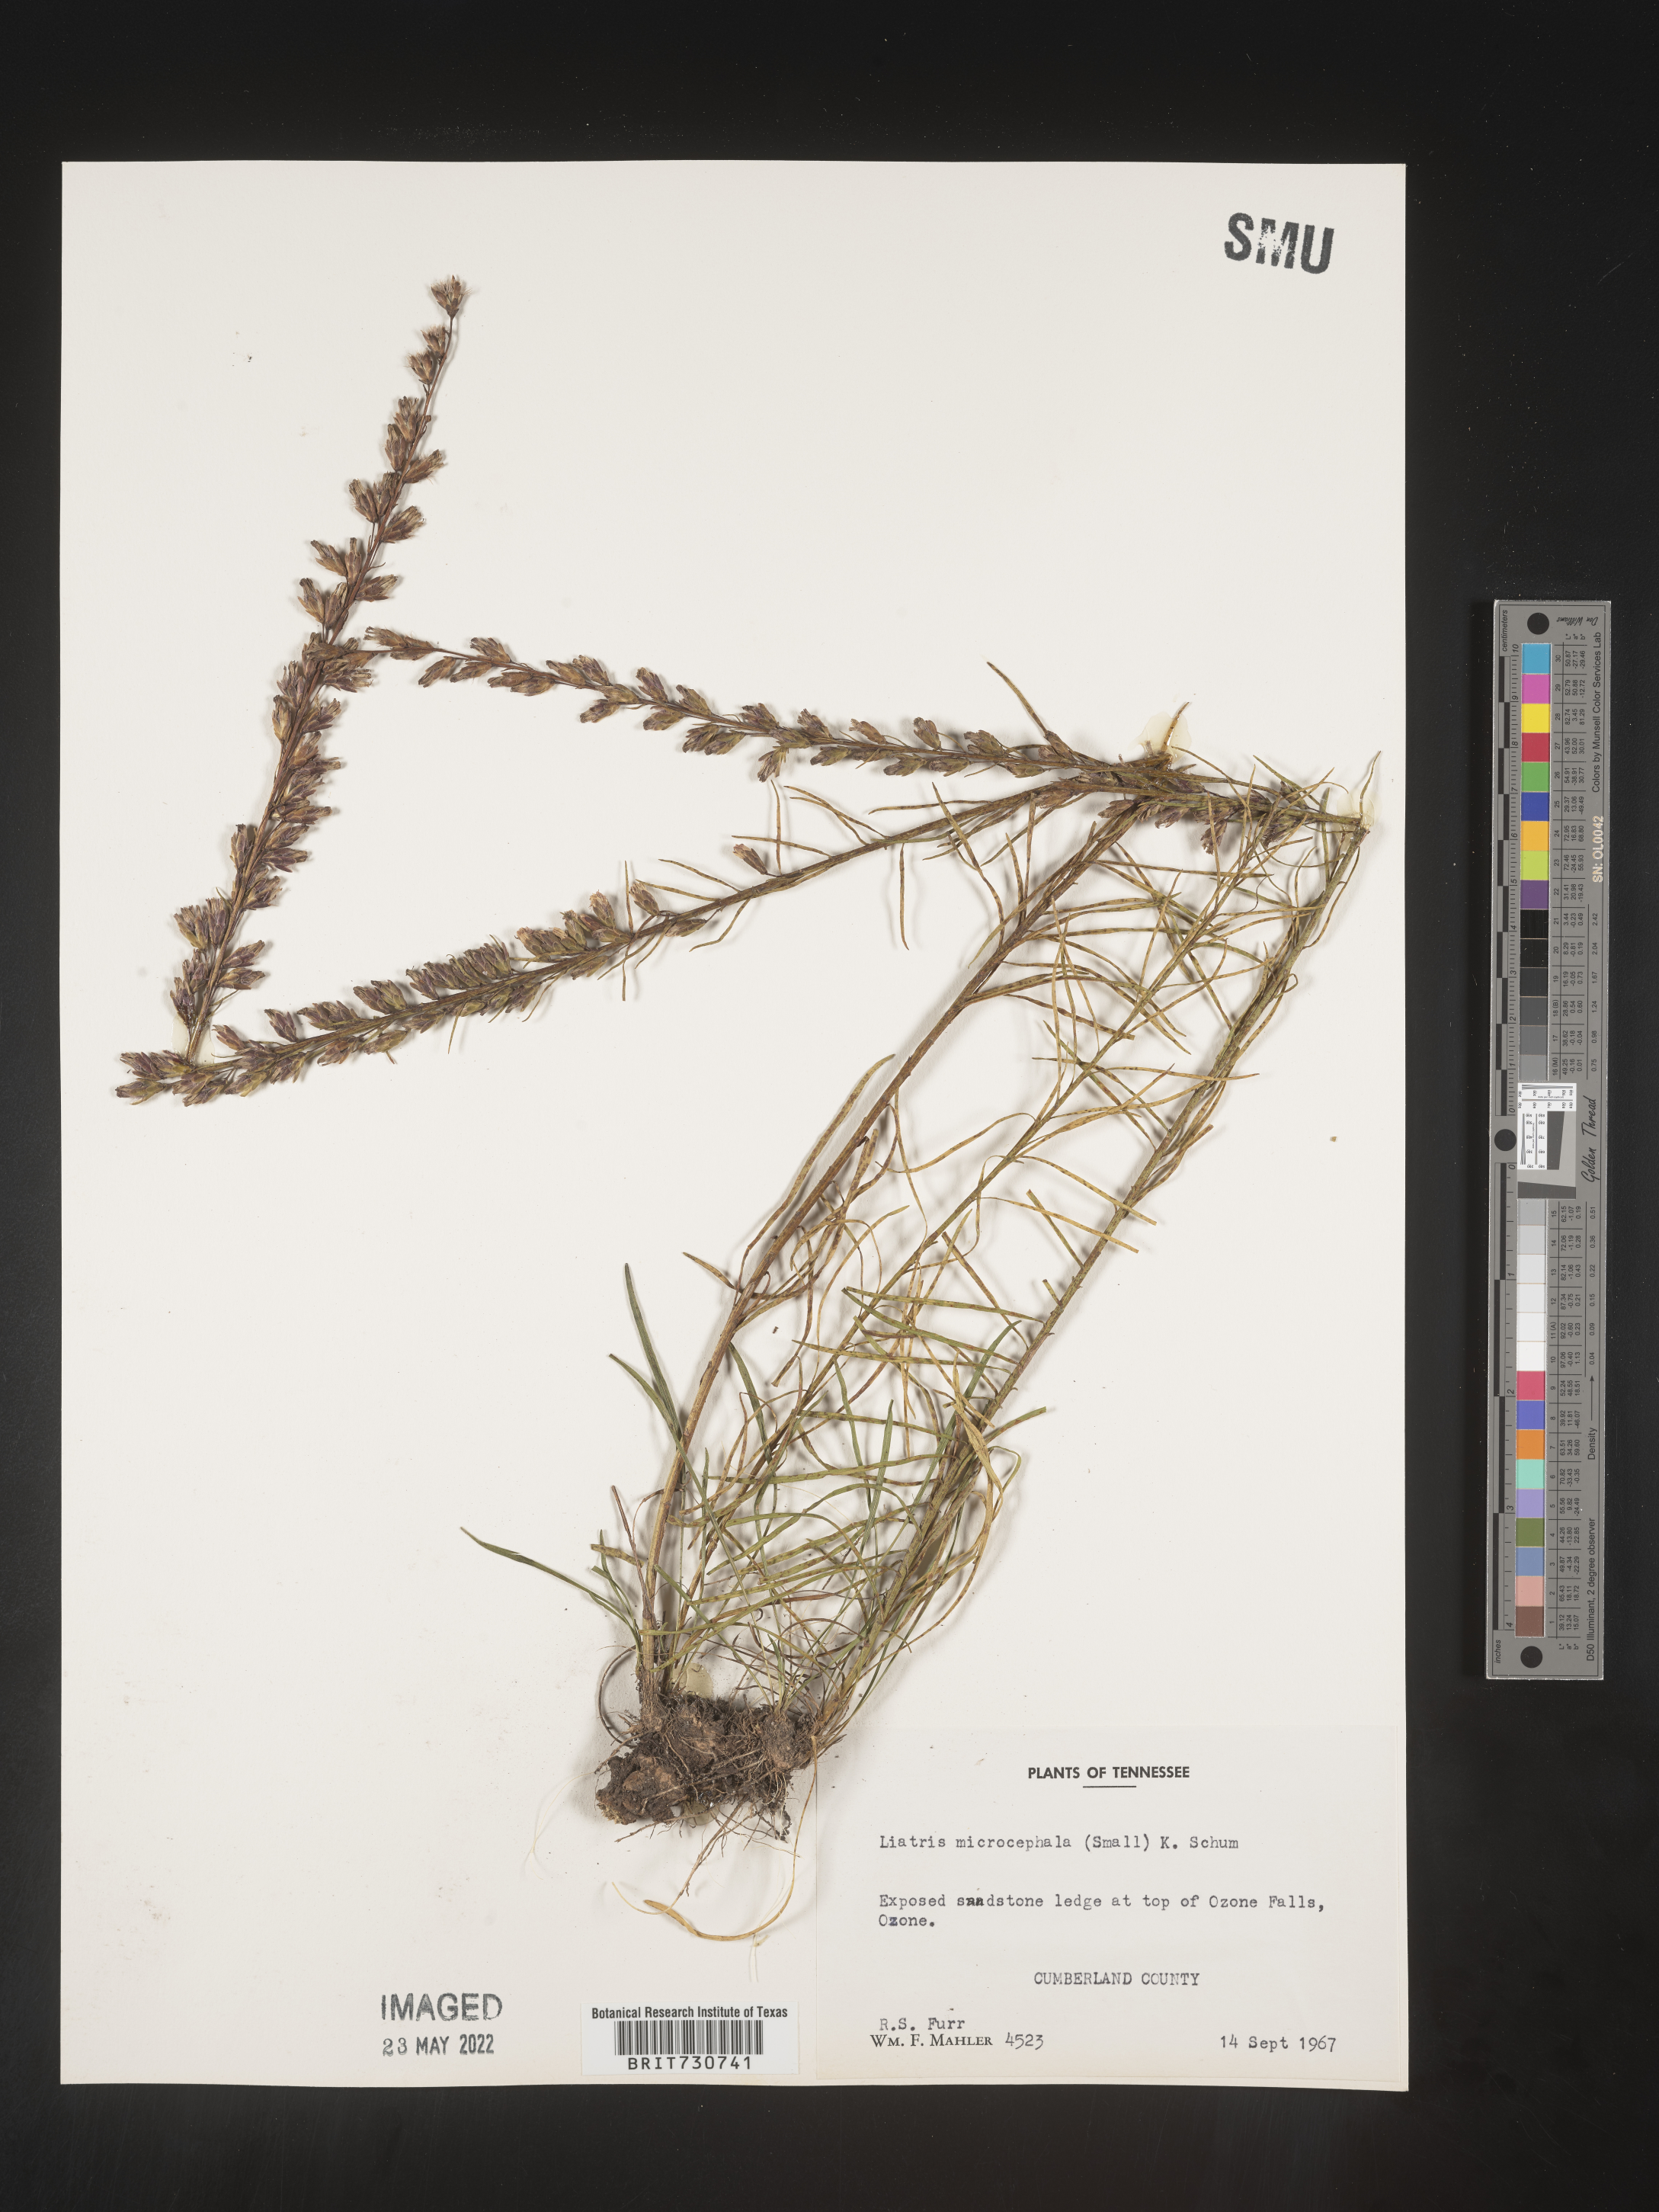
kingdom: Plantae
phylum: Tracheophyta
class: Magnoliopsida
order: Asterales
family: Asteraceae
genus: Liatris
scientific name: Liatris microcephala
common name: Small-head gayfeather
